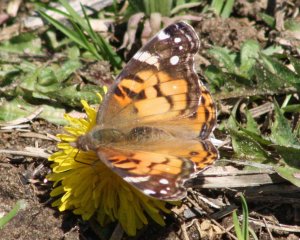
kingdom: Animalia
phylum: Arthropoda
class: Insecta
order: Lepidoptera
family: Nymphalidae
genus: Vanessa
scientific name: Vanessa virginiensis
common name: American Lady
